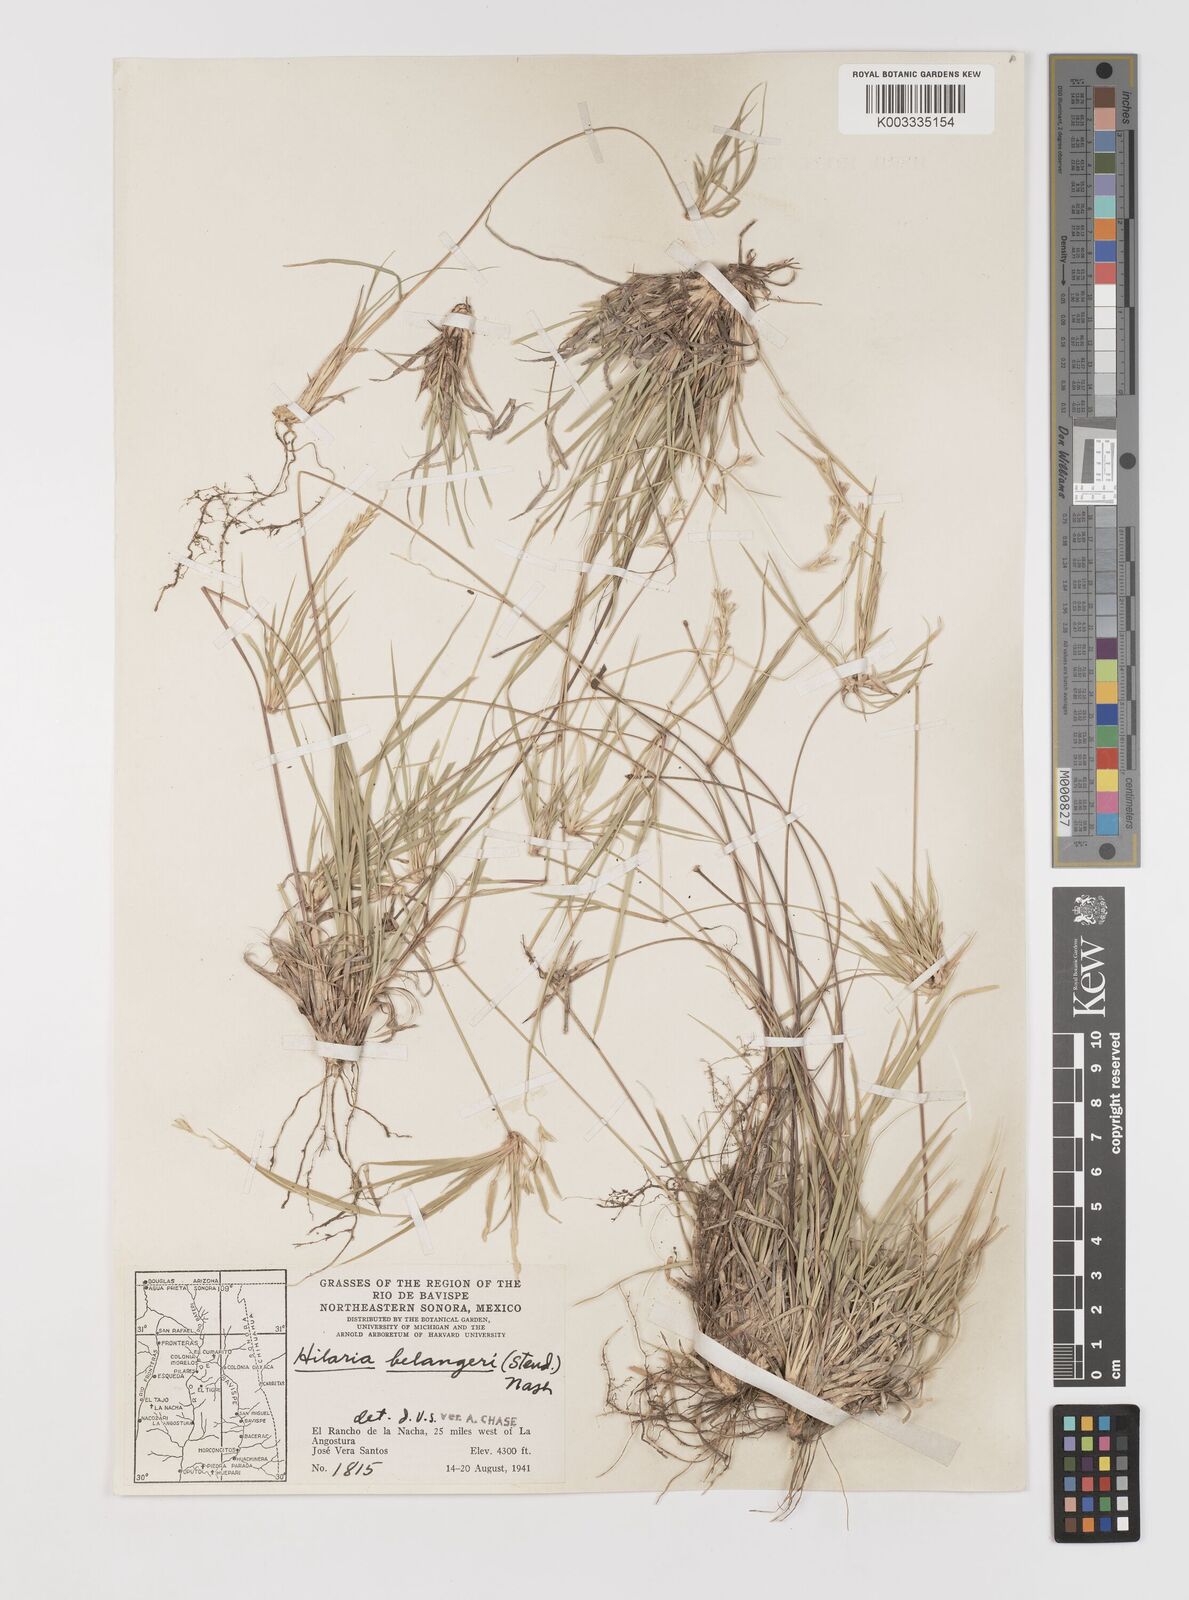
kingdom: Plantae
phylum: Tracheophyta
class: Liliopsida
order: Poales
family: Poaceae
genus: Hilaria
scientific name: Hilaria belangeri
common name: Curly-mesquite
